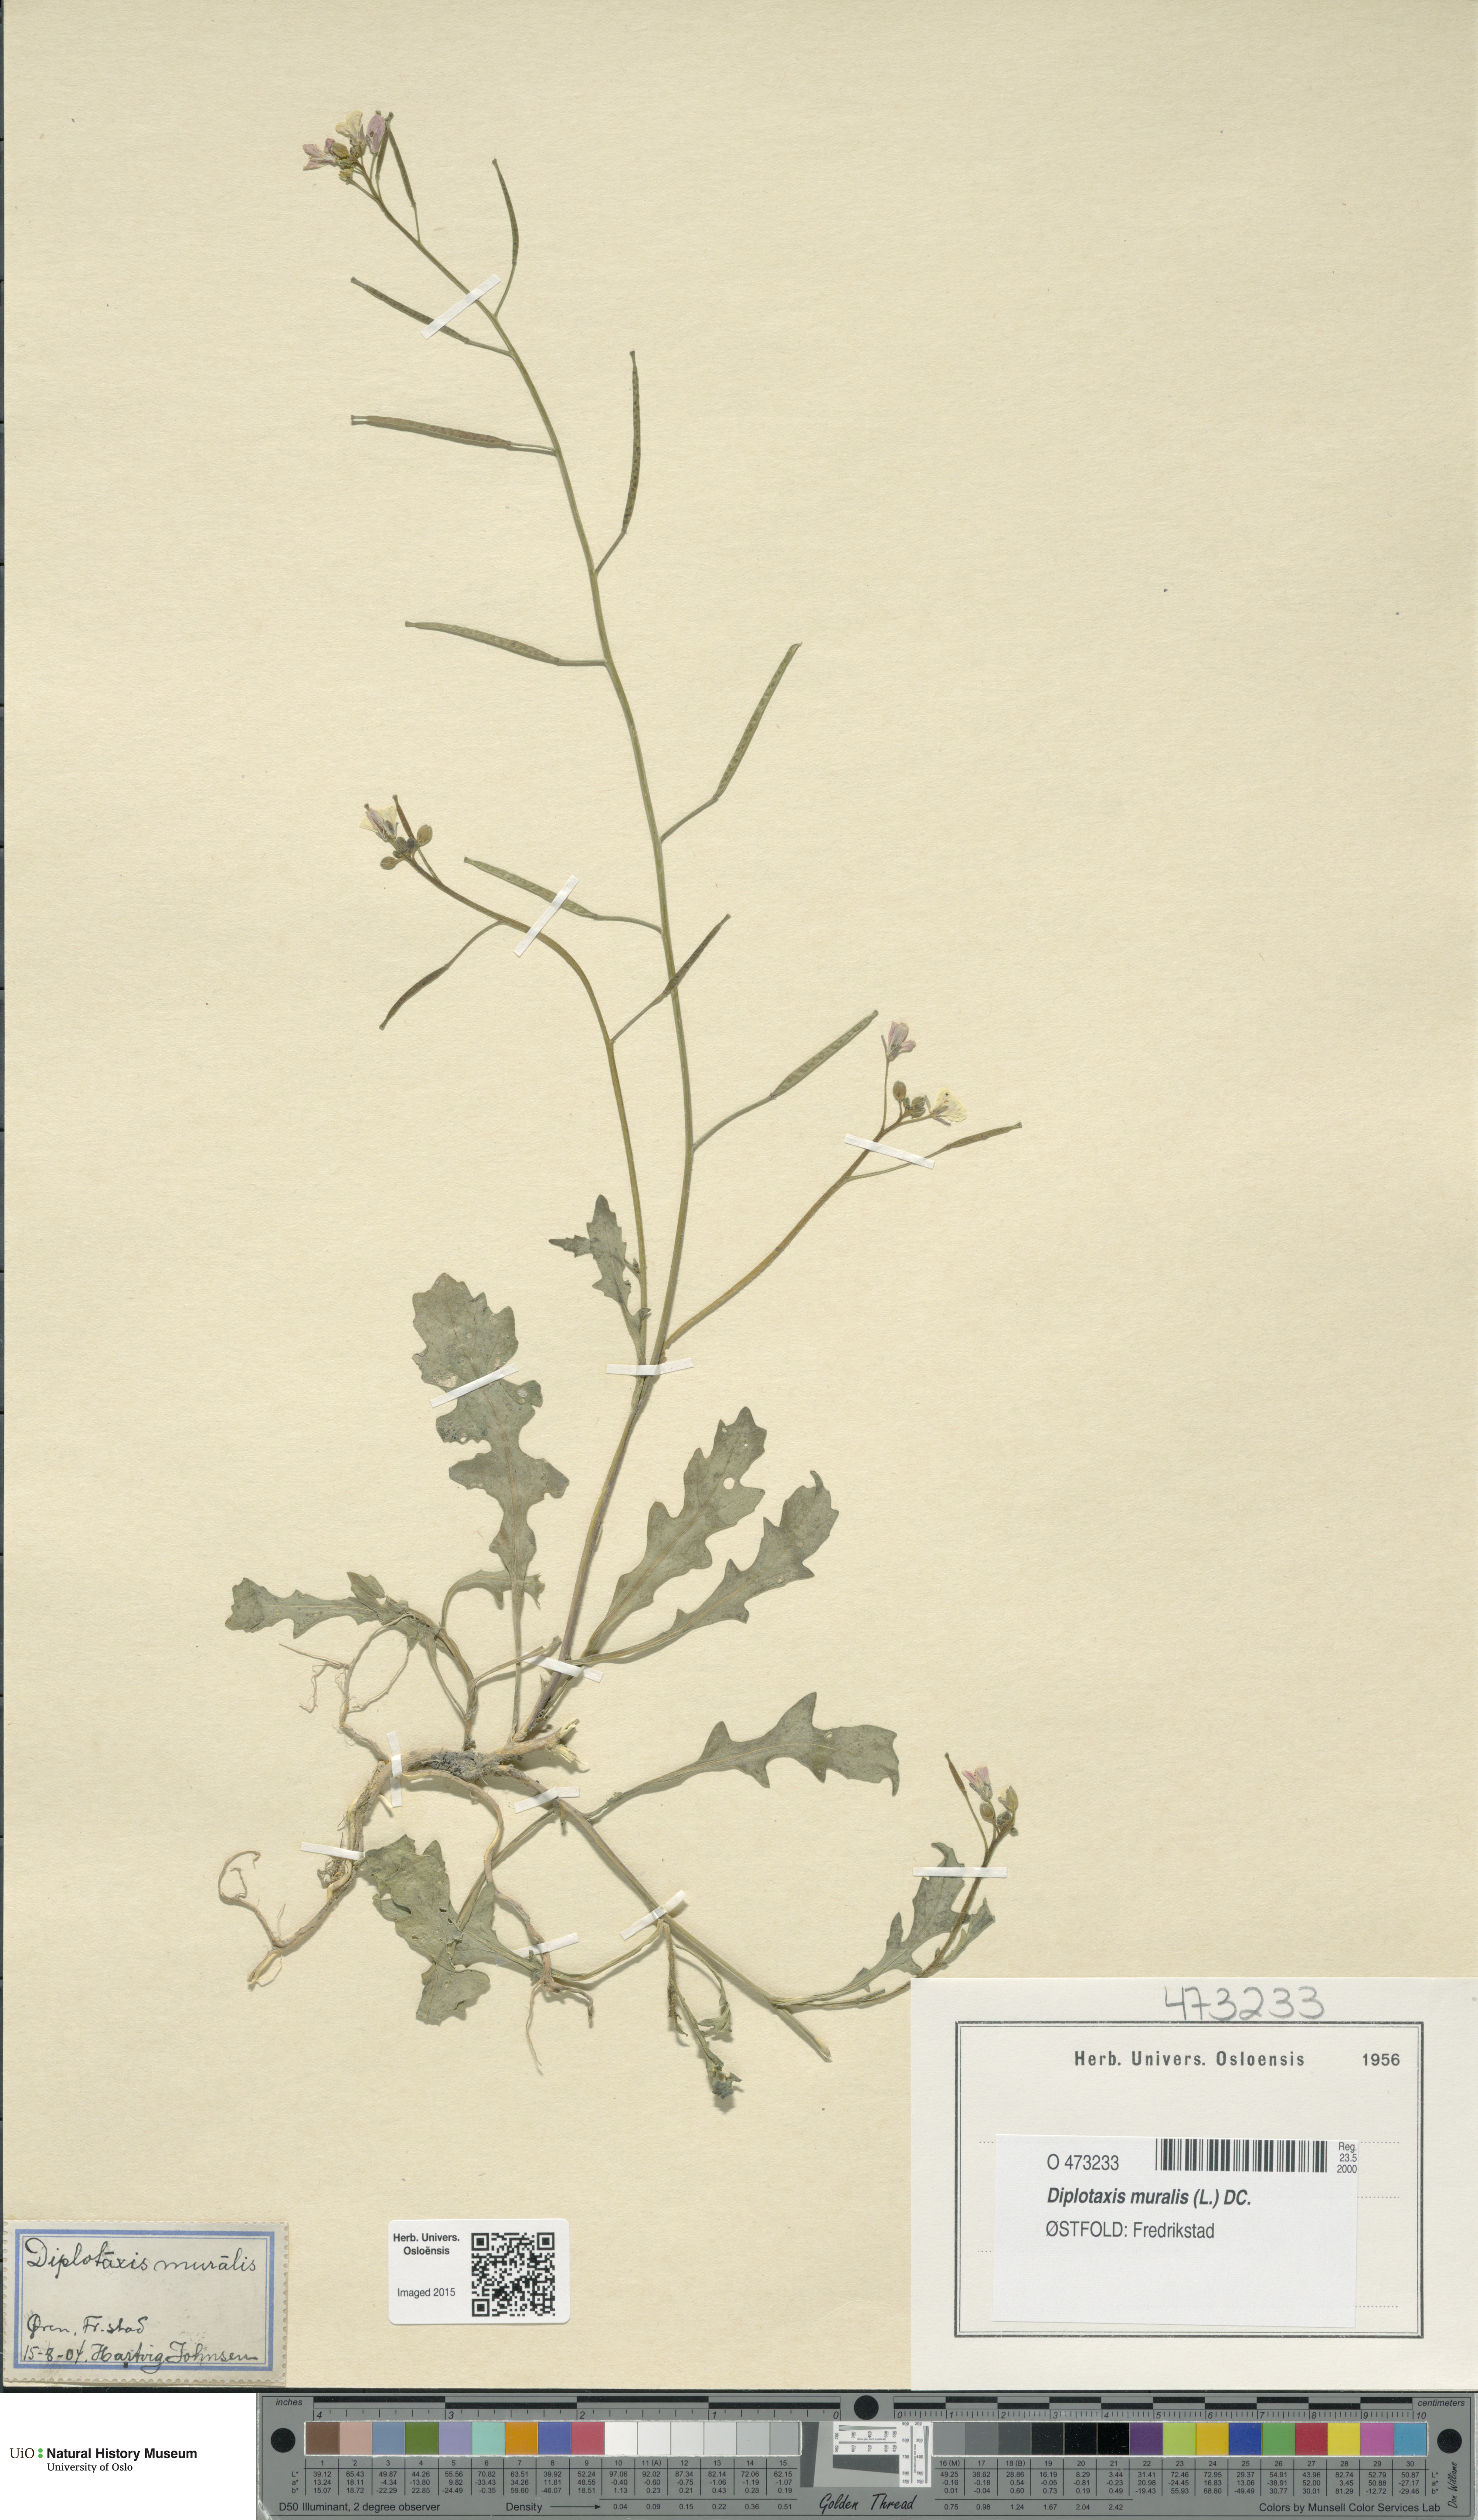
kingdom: Plantae
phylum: Tracheophyta
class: Magnoliopsida
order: Brassicales
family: Brassicaceae
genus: Diplotaxis
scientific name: Diplotaxis muralis
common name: Annual wall-rocket
